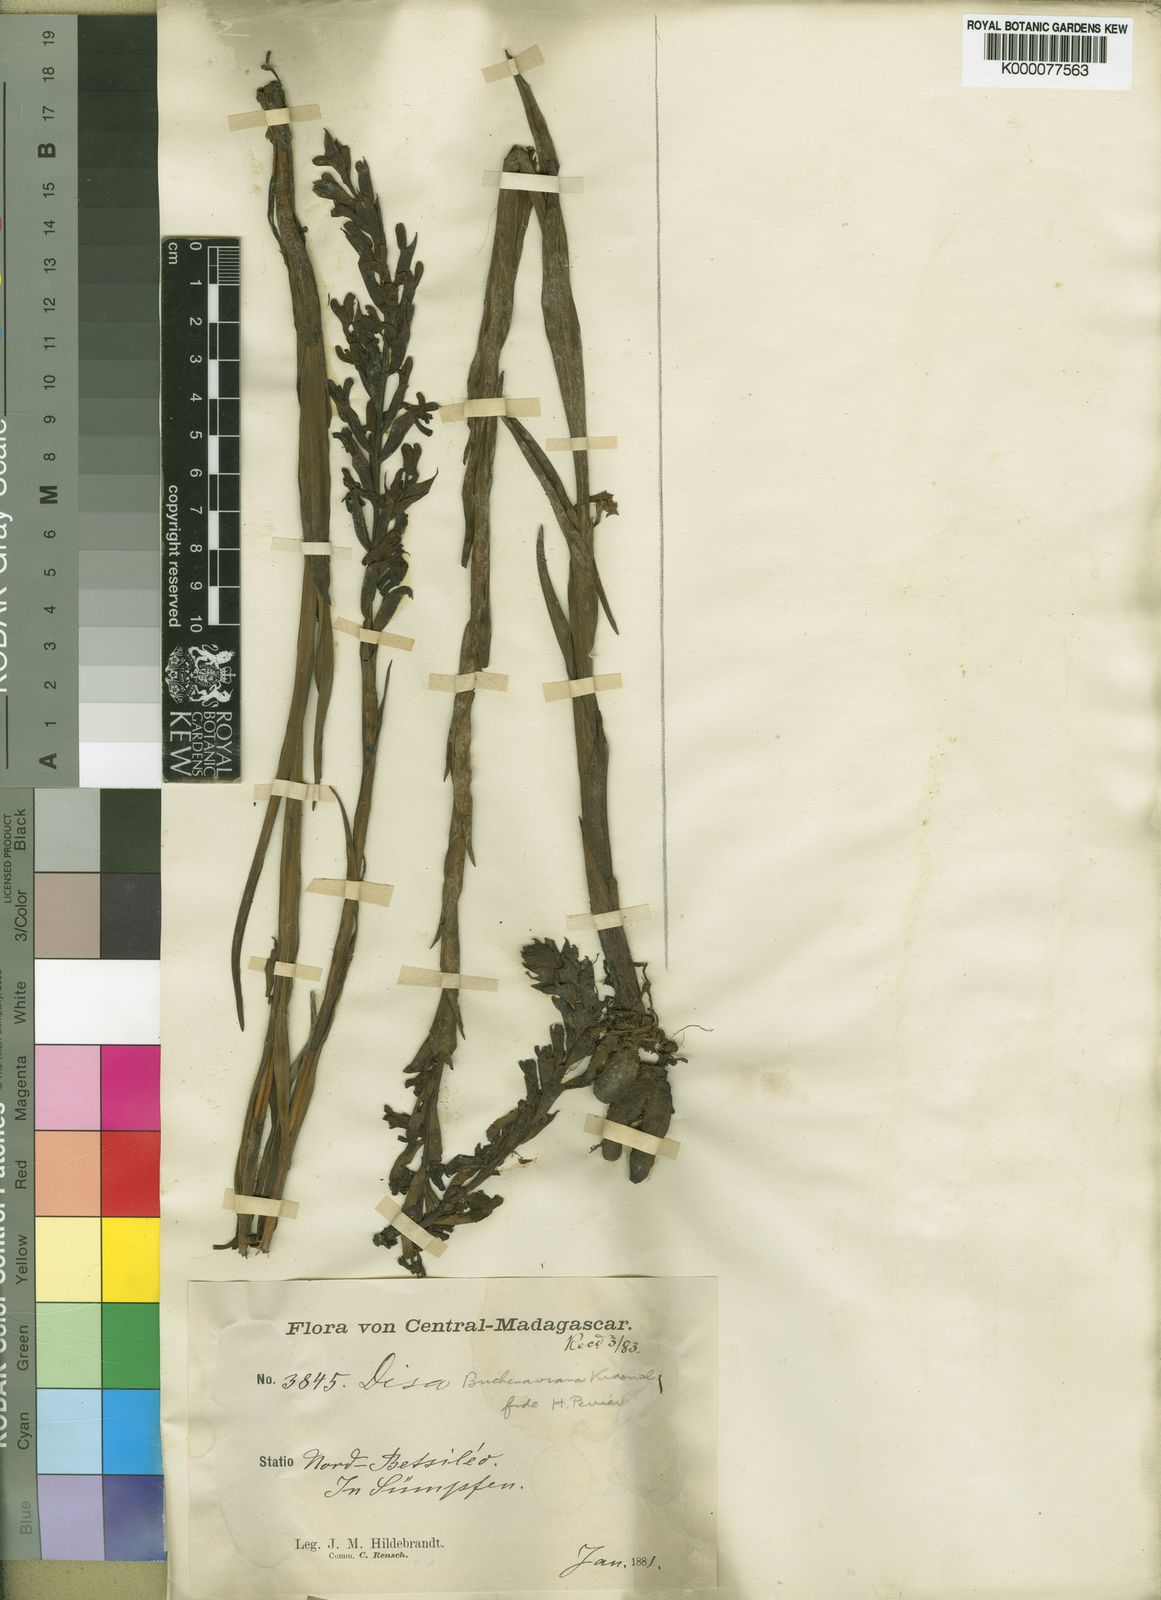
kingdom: Plantae
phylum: Tracheophyta
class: Liliopsida
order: Asparagales
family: Orchidaceae
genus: Disa
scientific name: Disa buchenaviana
